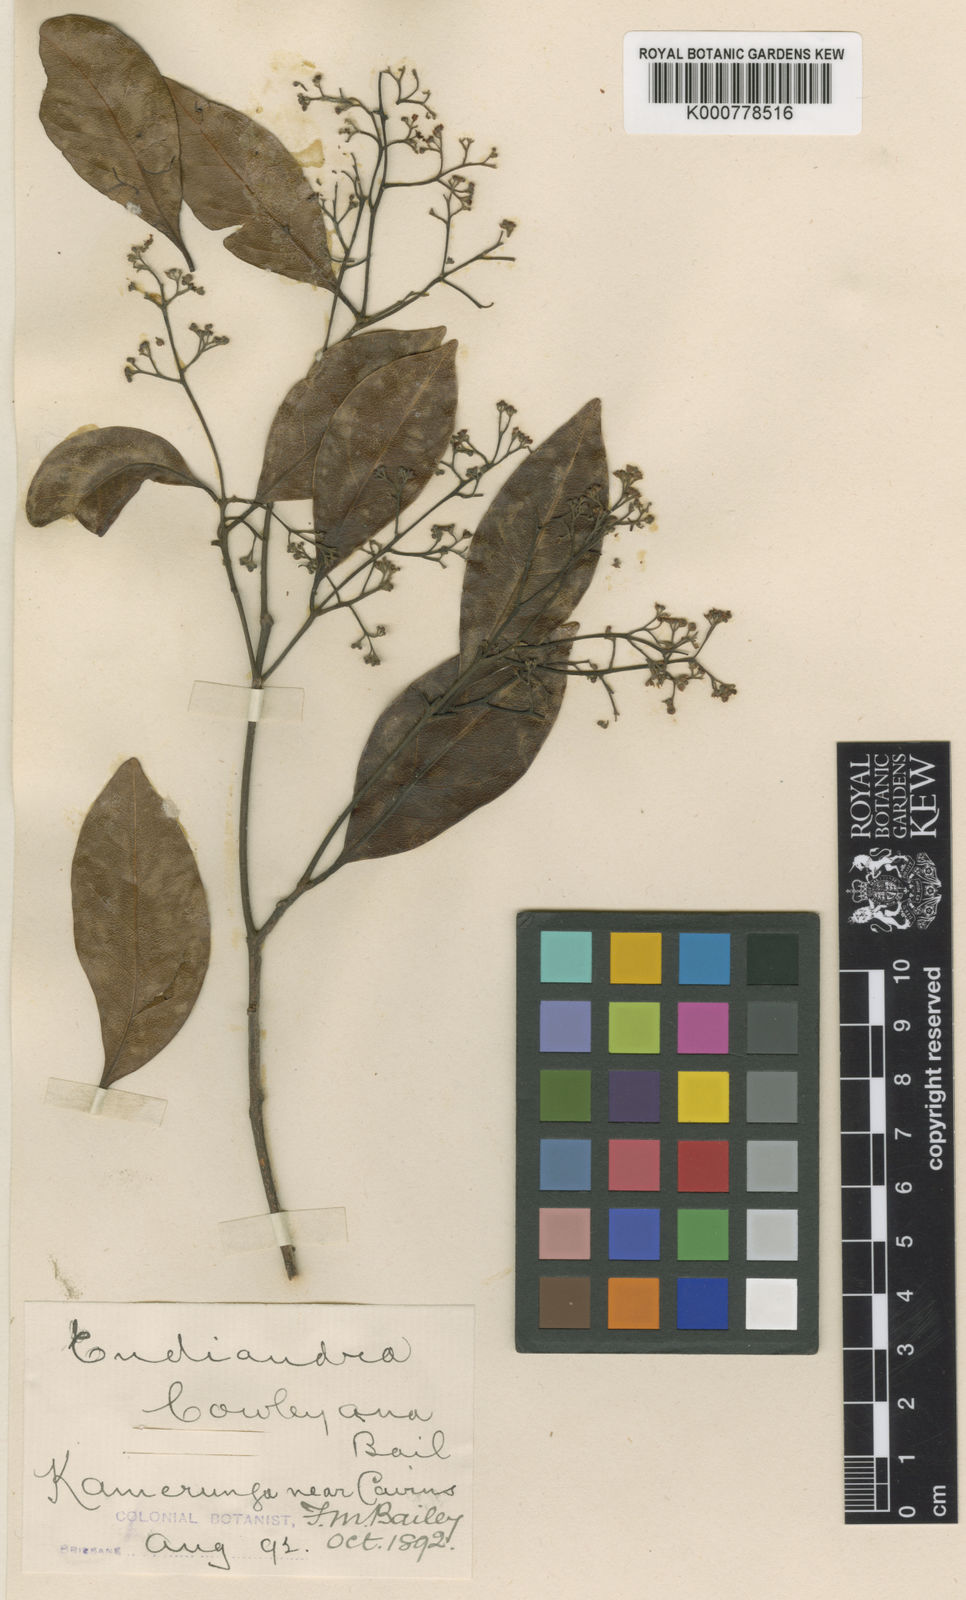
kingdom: Plantae
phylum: Tracheophyta
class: Magnoliopsida
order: Laurales
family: Lauraceae
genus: Endiandra
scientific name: Endiandra cowleyana
